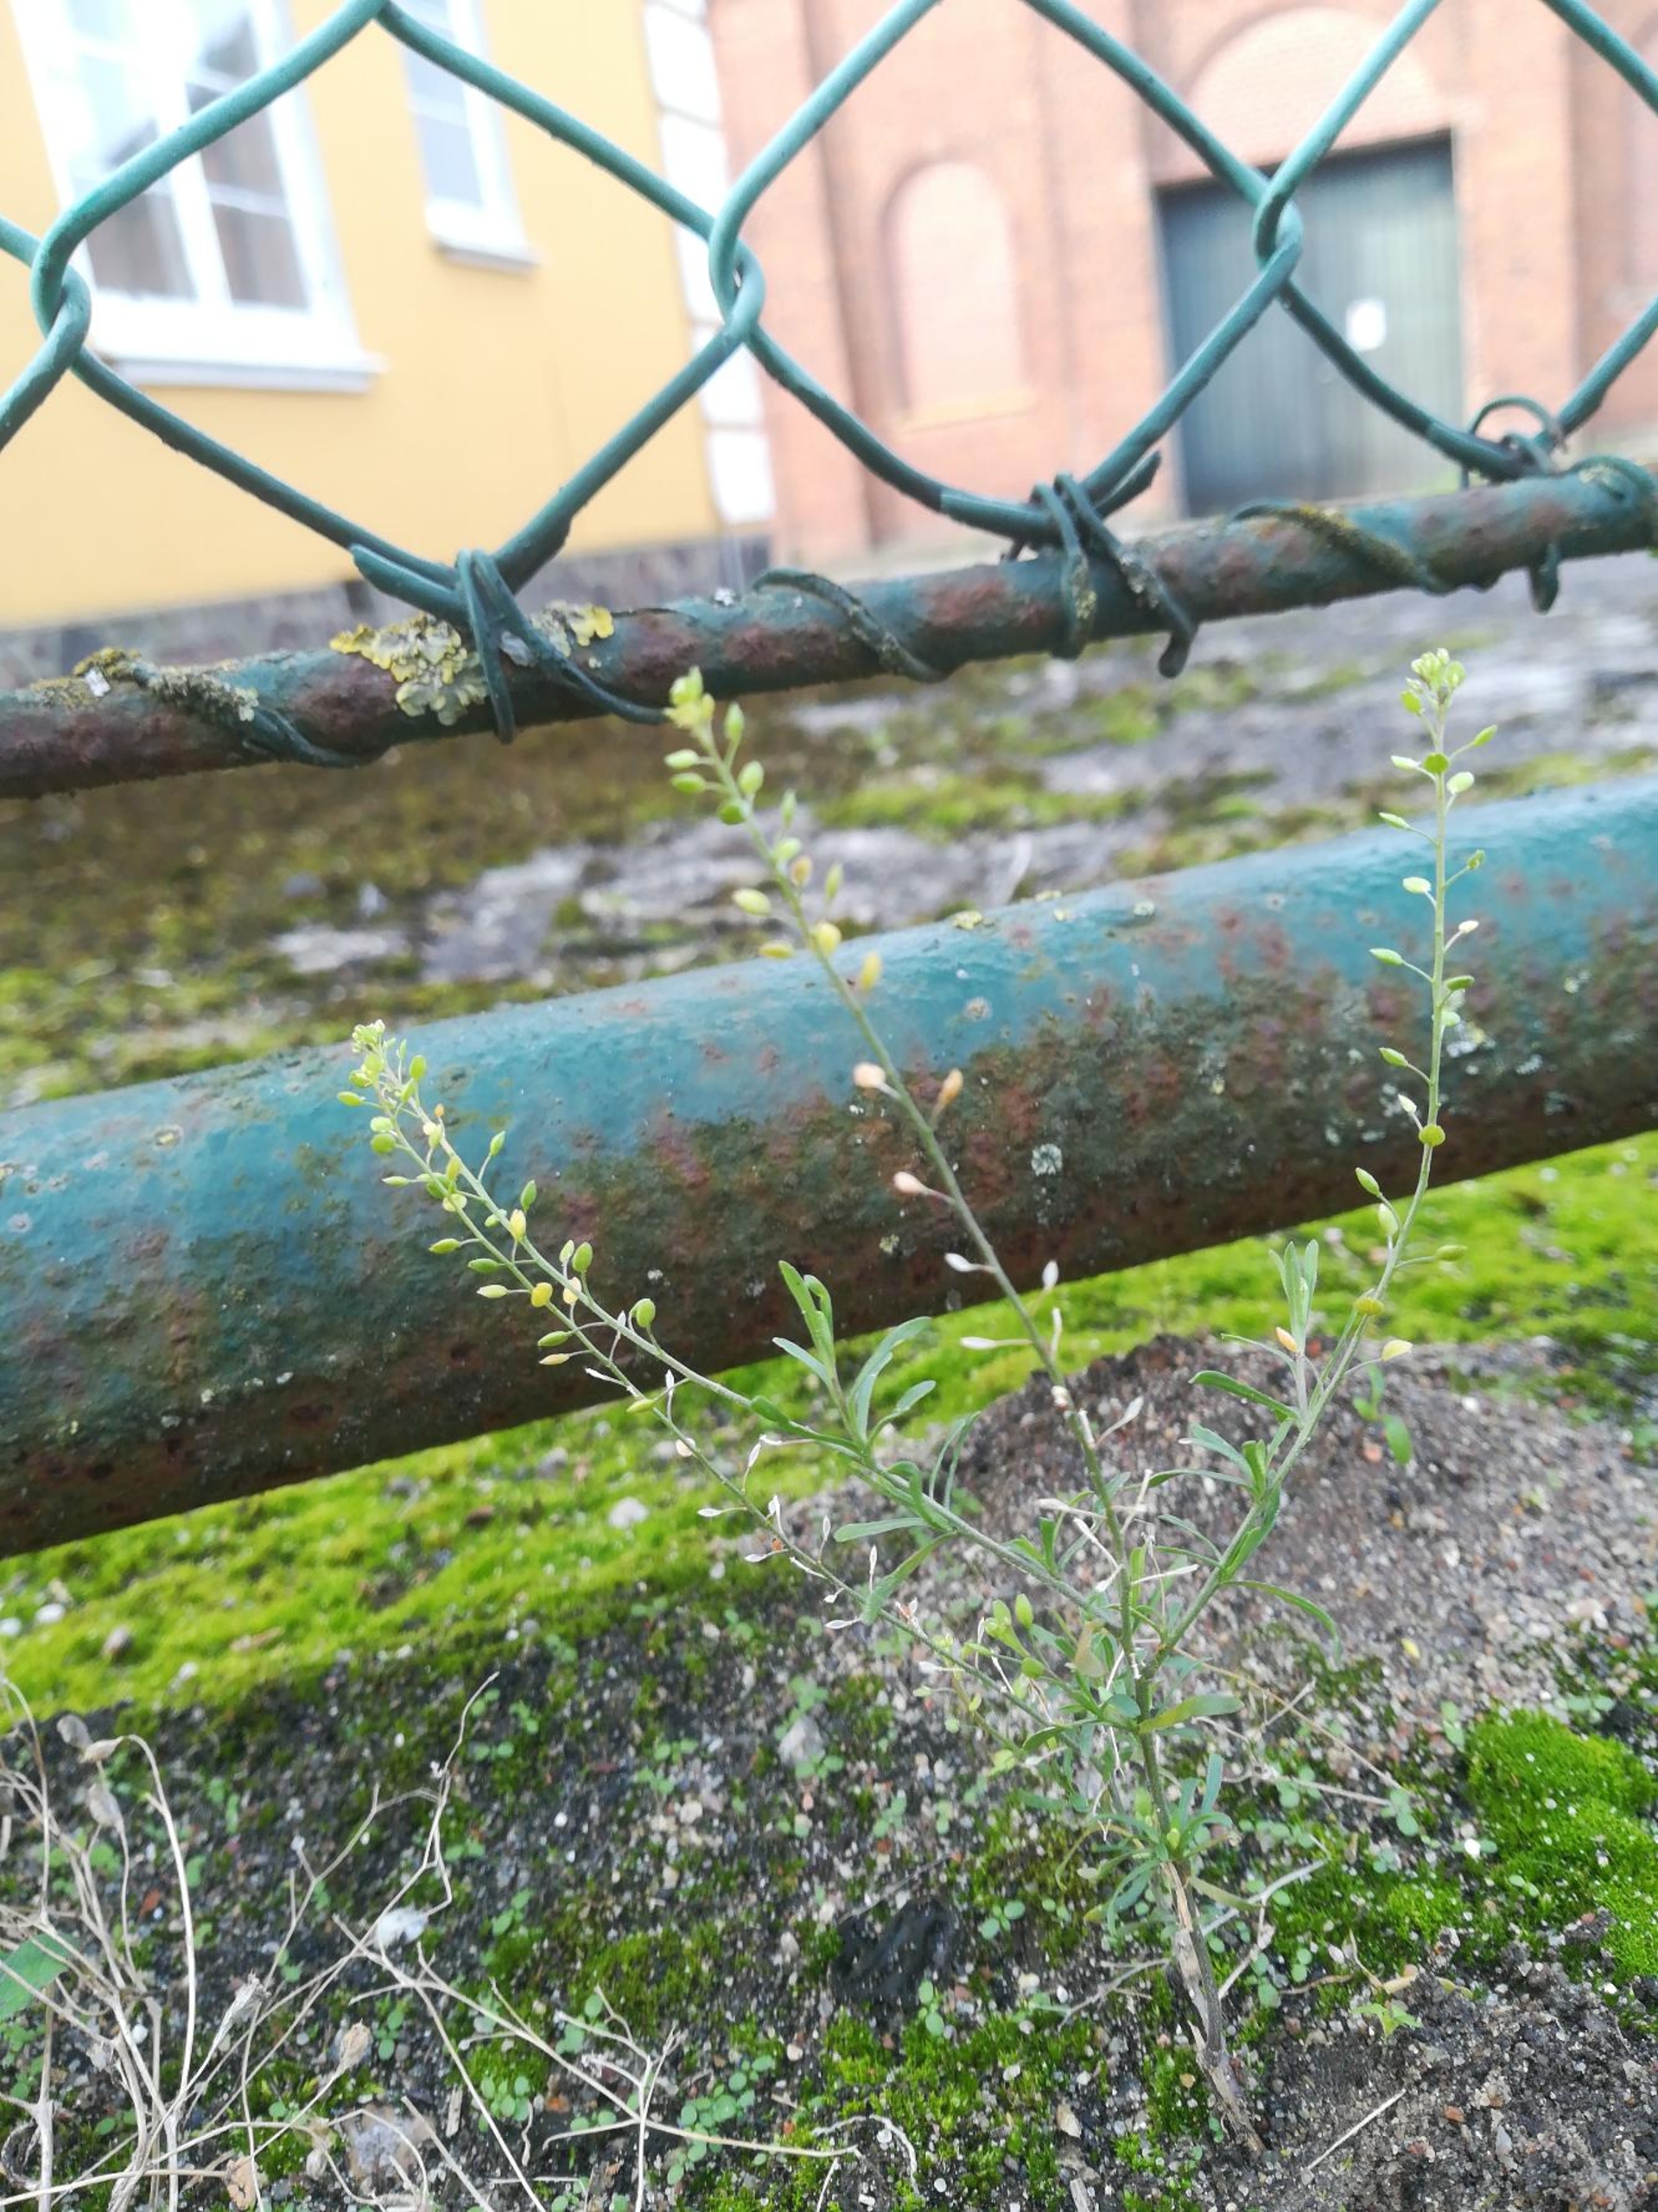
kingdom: Plantae
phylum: Tracheophyta
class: Magnoliopsida
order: Brassicales
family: Brassicaceae
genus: Lepidium
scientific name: Lepidium ruderale
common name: Stinkende karse
